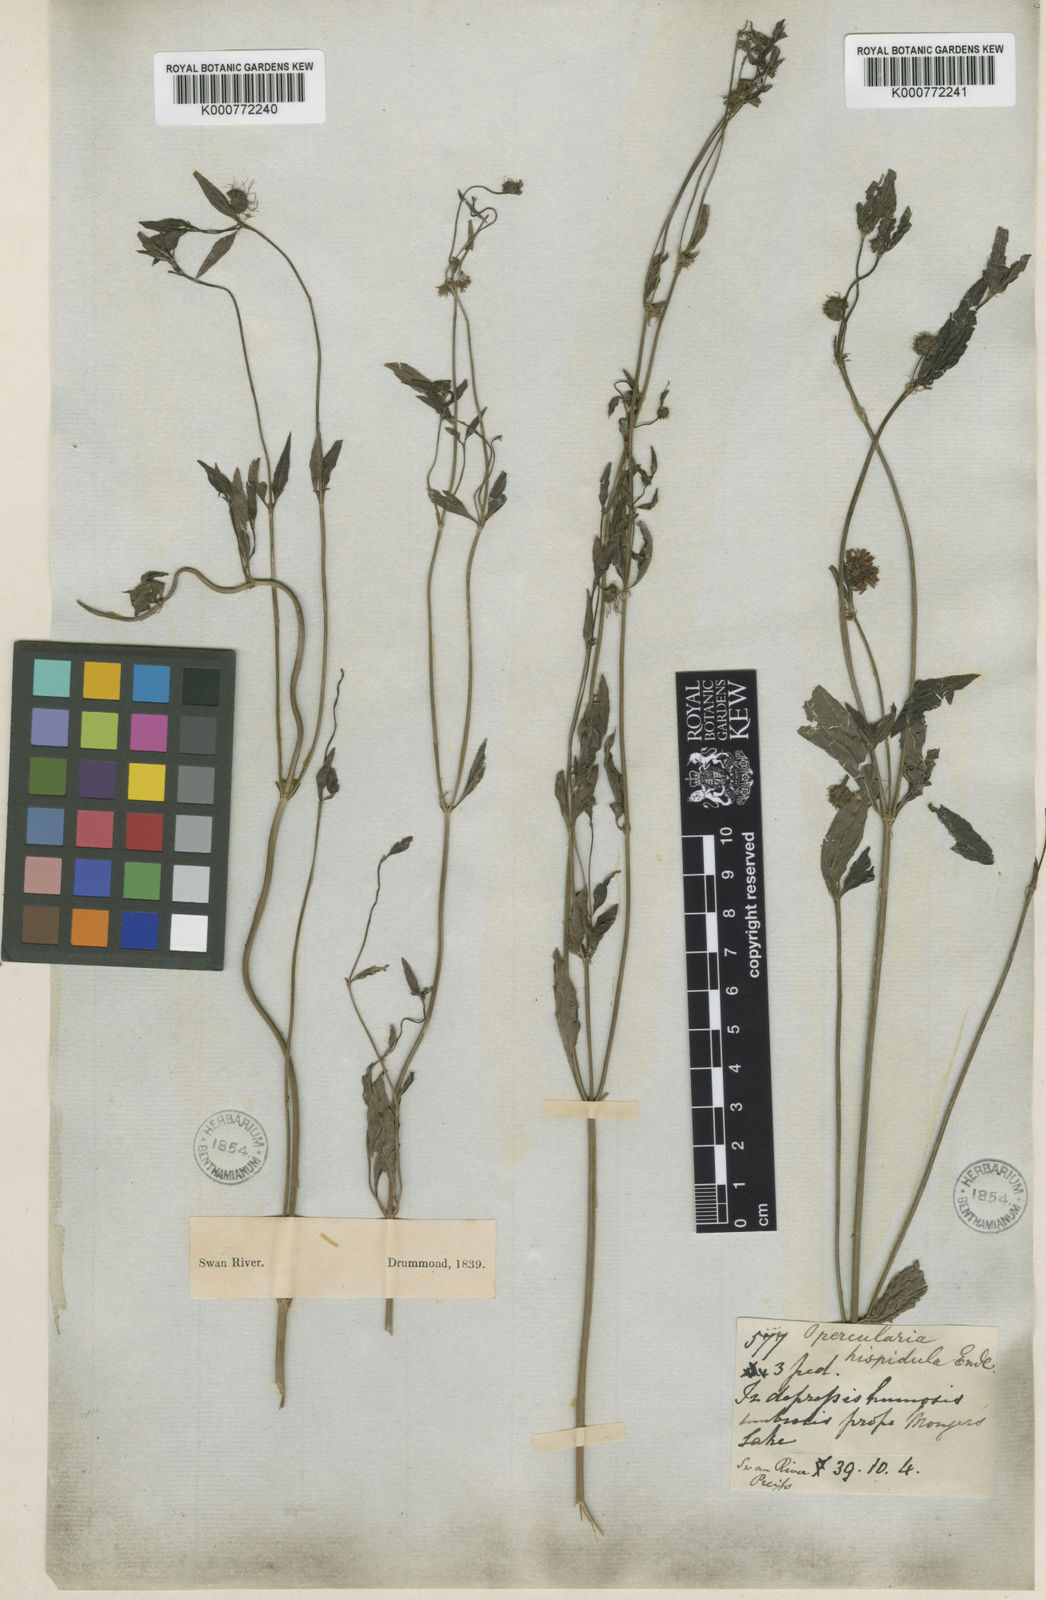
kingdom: Plantae
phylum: Tracheophyta
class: Magnoliopsida
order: Gentianales
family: Rubiaceae
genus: Opercularia
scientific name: Opercularia hispidula
